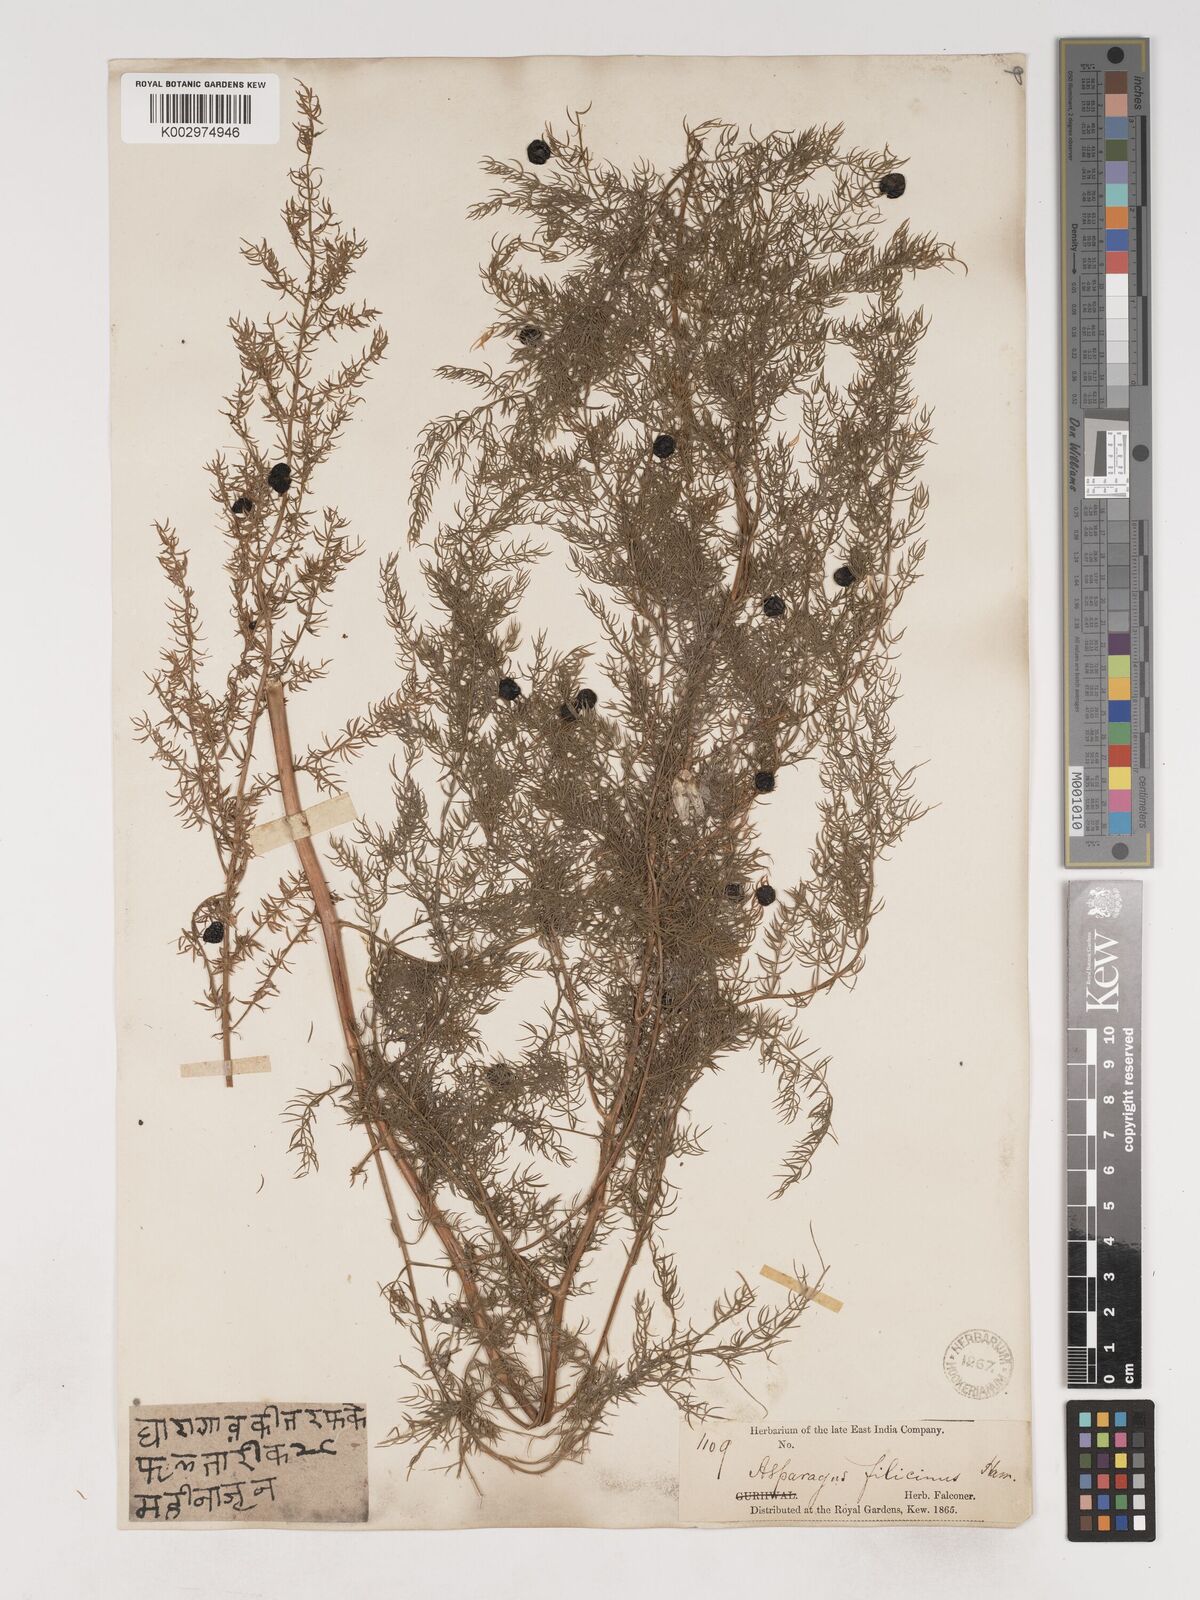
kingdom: Plantae
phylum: Tracheophyta
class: Liliopsida
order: Asparagales
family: Asparagaceae
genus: Asparagus
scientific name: Asparagus filicinus
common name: Fern asparagus
